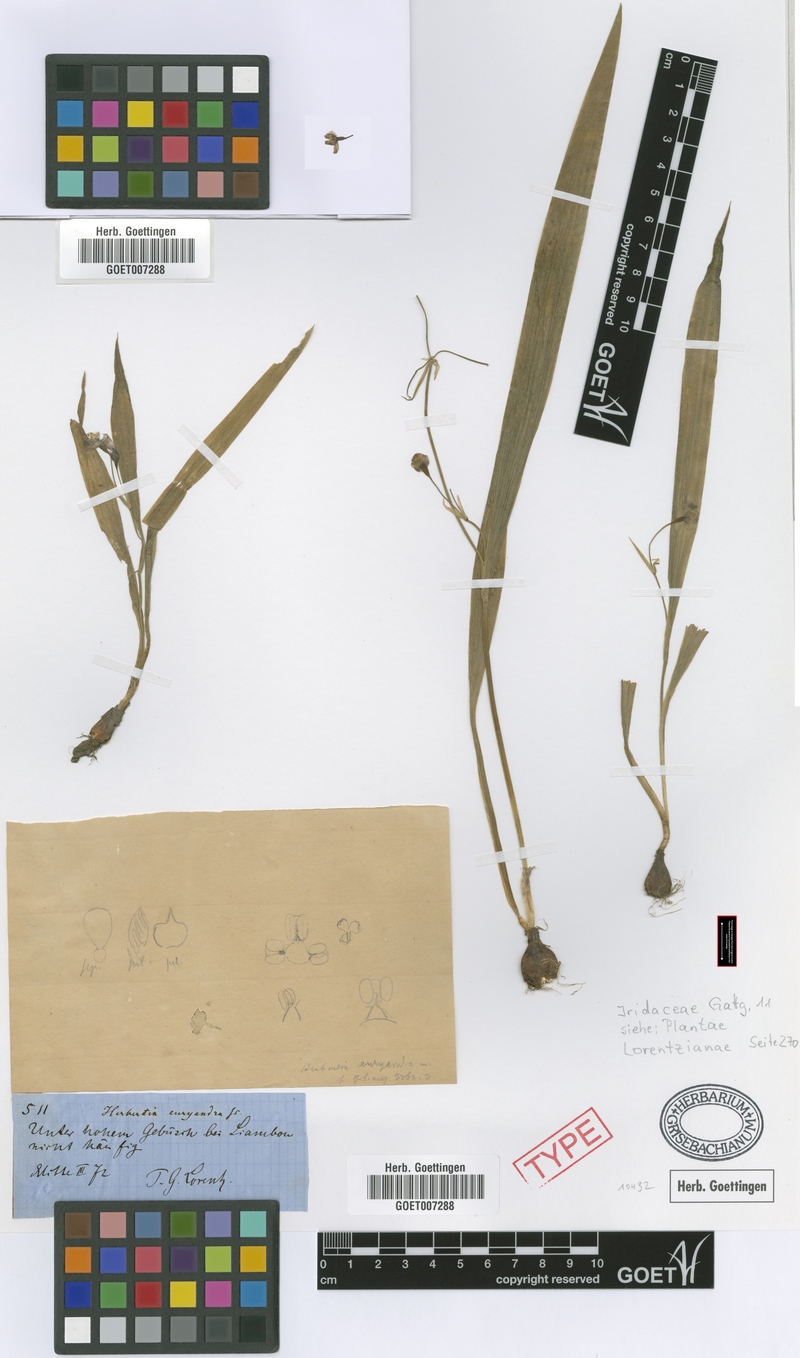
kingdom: Plantae
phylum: Tracheophyta
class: Liliopsida
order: Asparagales
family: Iridaceae
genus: Ennealophus
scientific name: Ennealophus euryandrus
